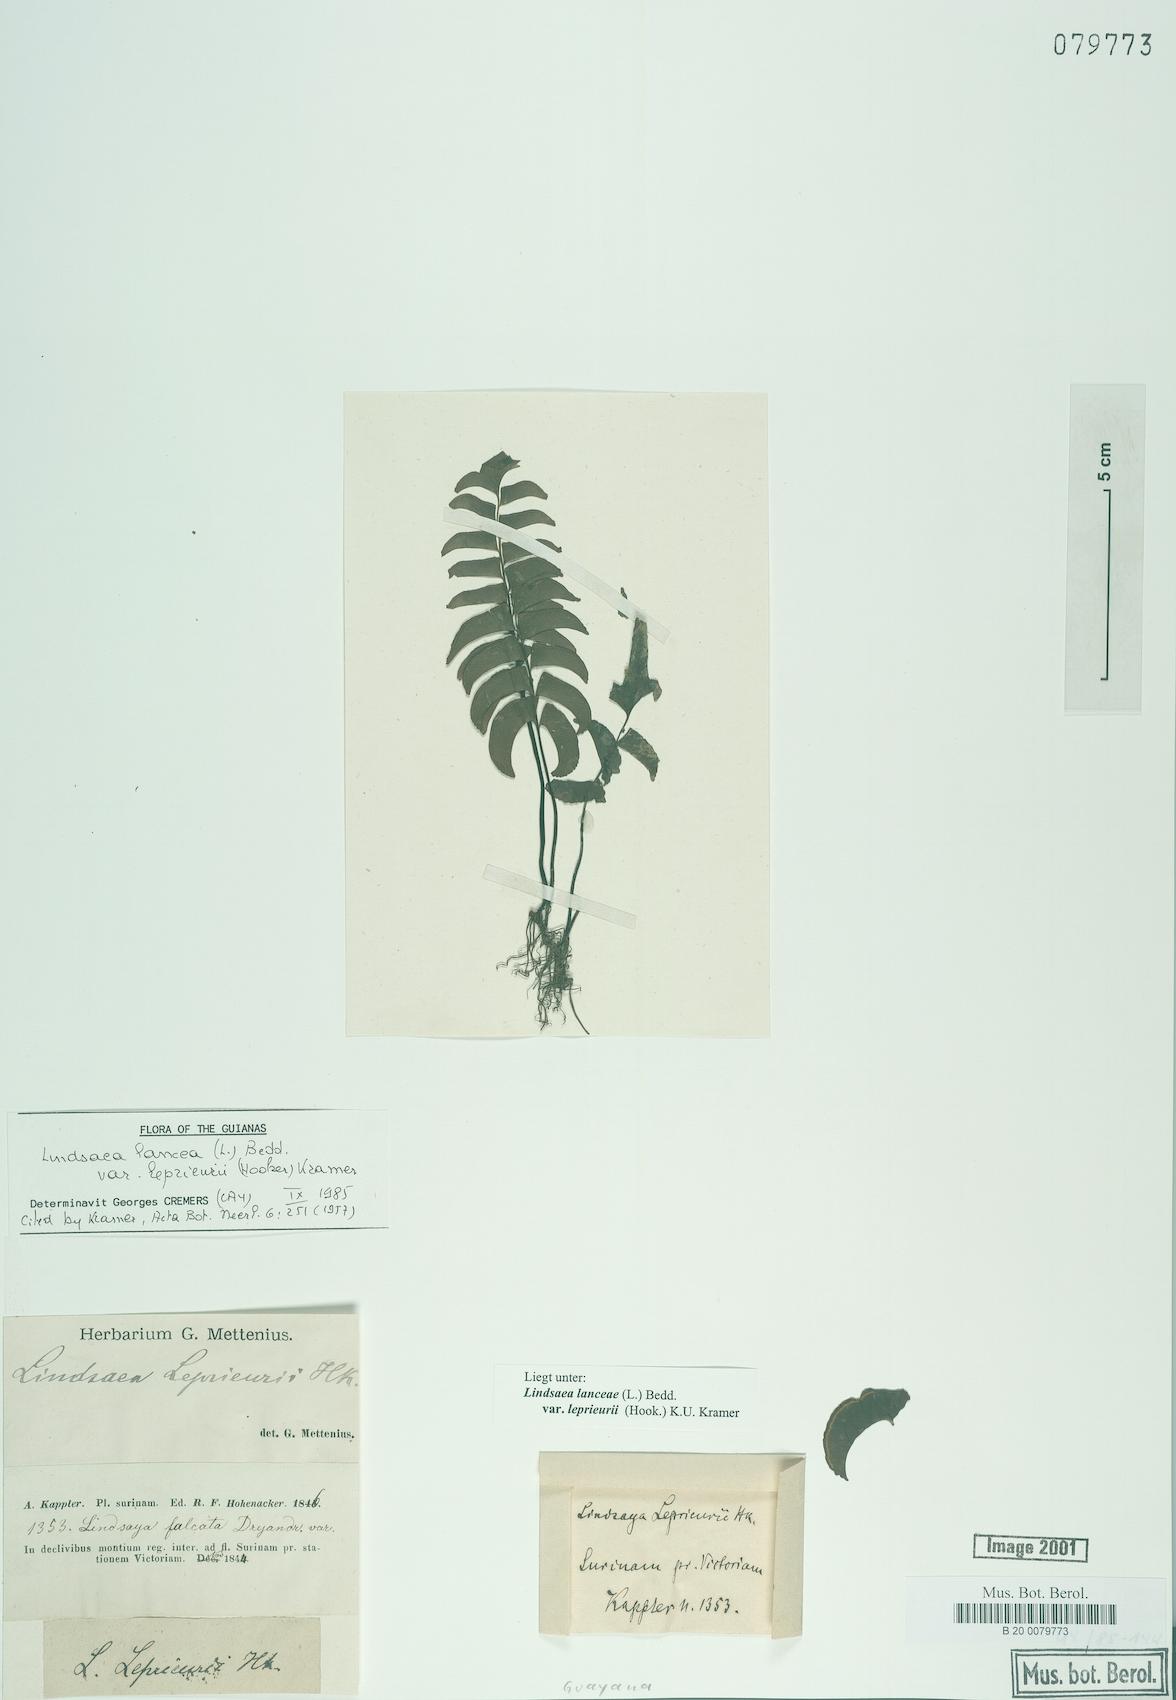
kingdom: Plantae
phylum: Tracheophyta
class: Polypodiopsida
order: Polypodiales
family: Lindsaeaceae
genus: Lindsaea
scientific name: Lindsaea lancea
